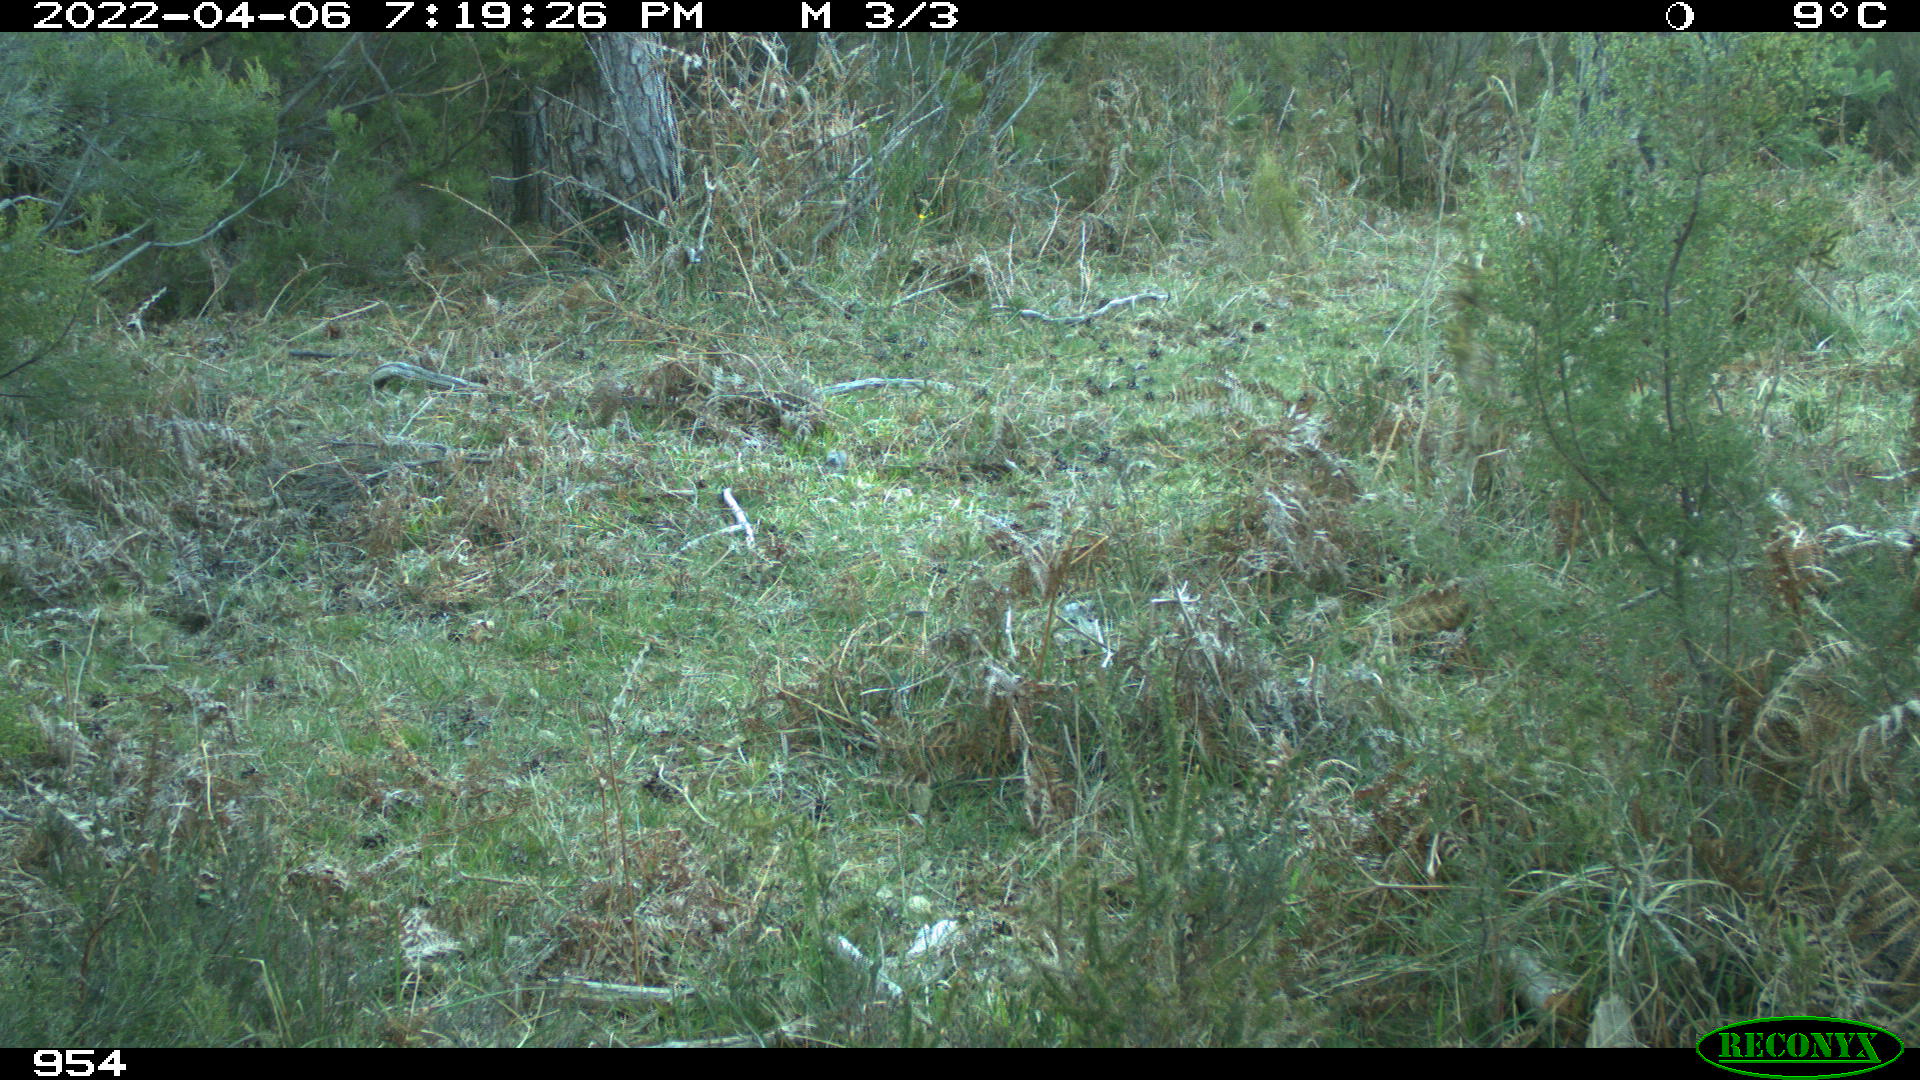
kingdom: Animalia
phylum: Chordata
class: Mammalia
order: Perissodactyla
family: Equidae
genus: Equus
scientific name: Equus caballus
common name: Horse
